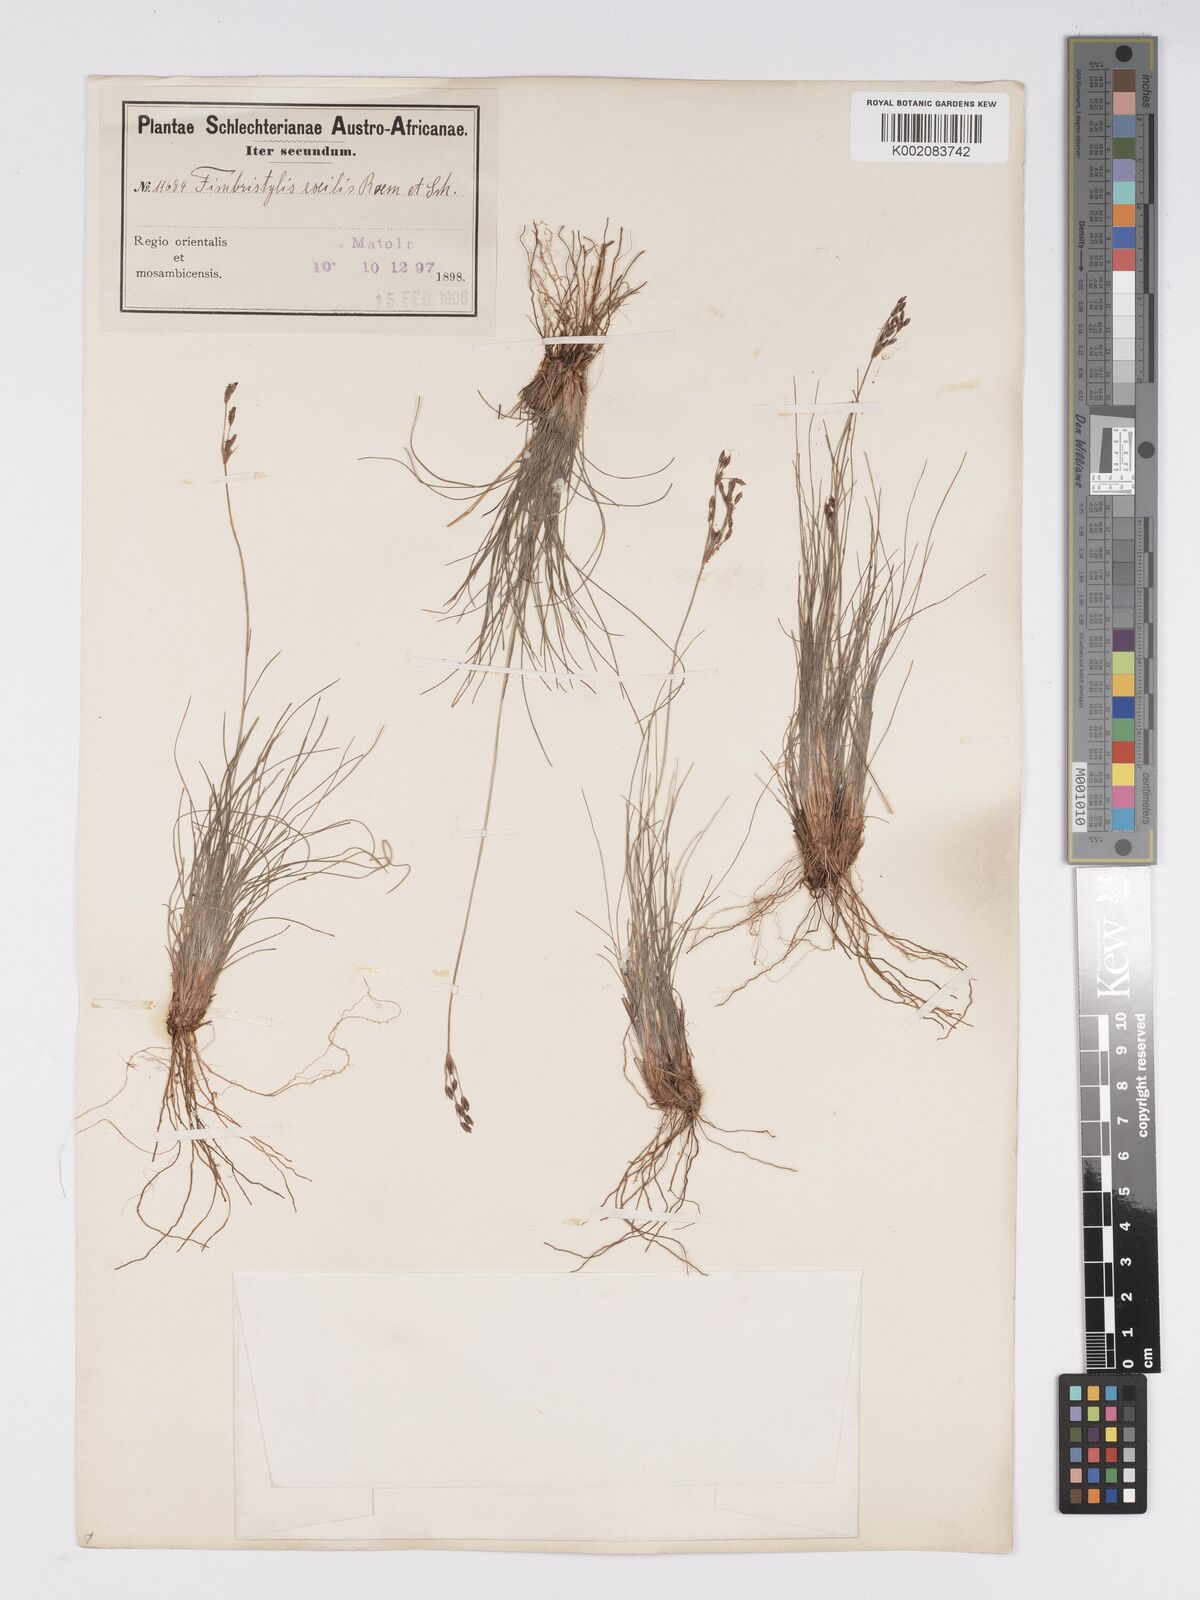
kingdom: Plantae
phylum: Tracheophyta
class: Liliopsida
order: Poales
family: Cyperaceae
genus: Bulbostylis
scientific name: Bulbostylis hispidula
